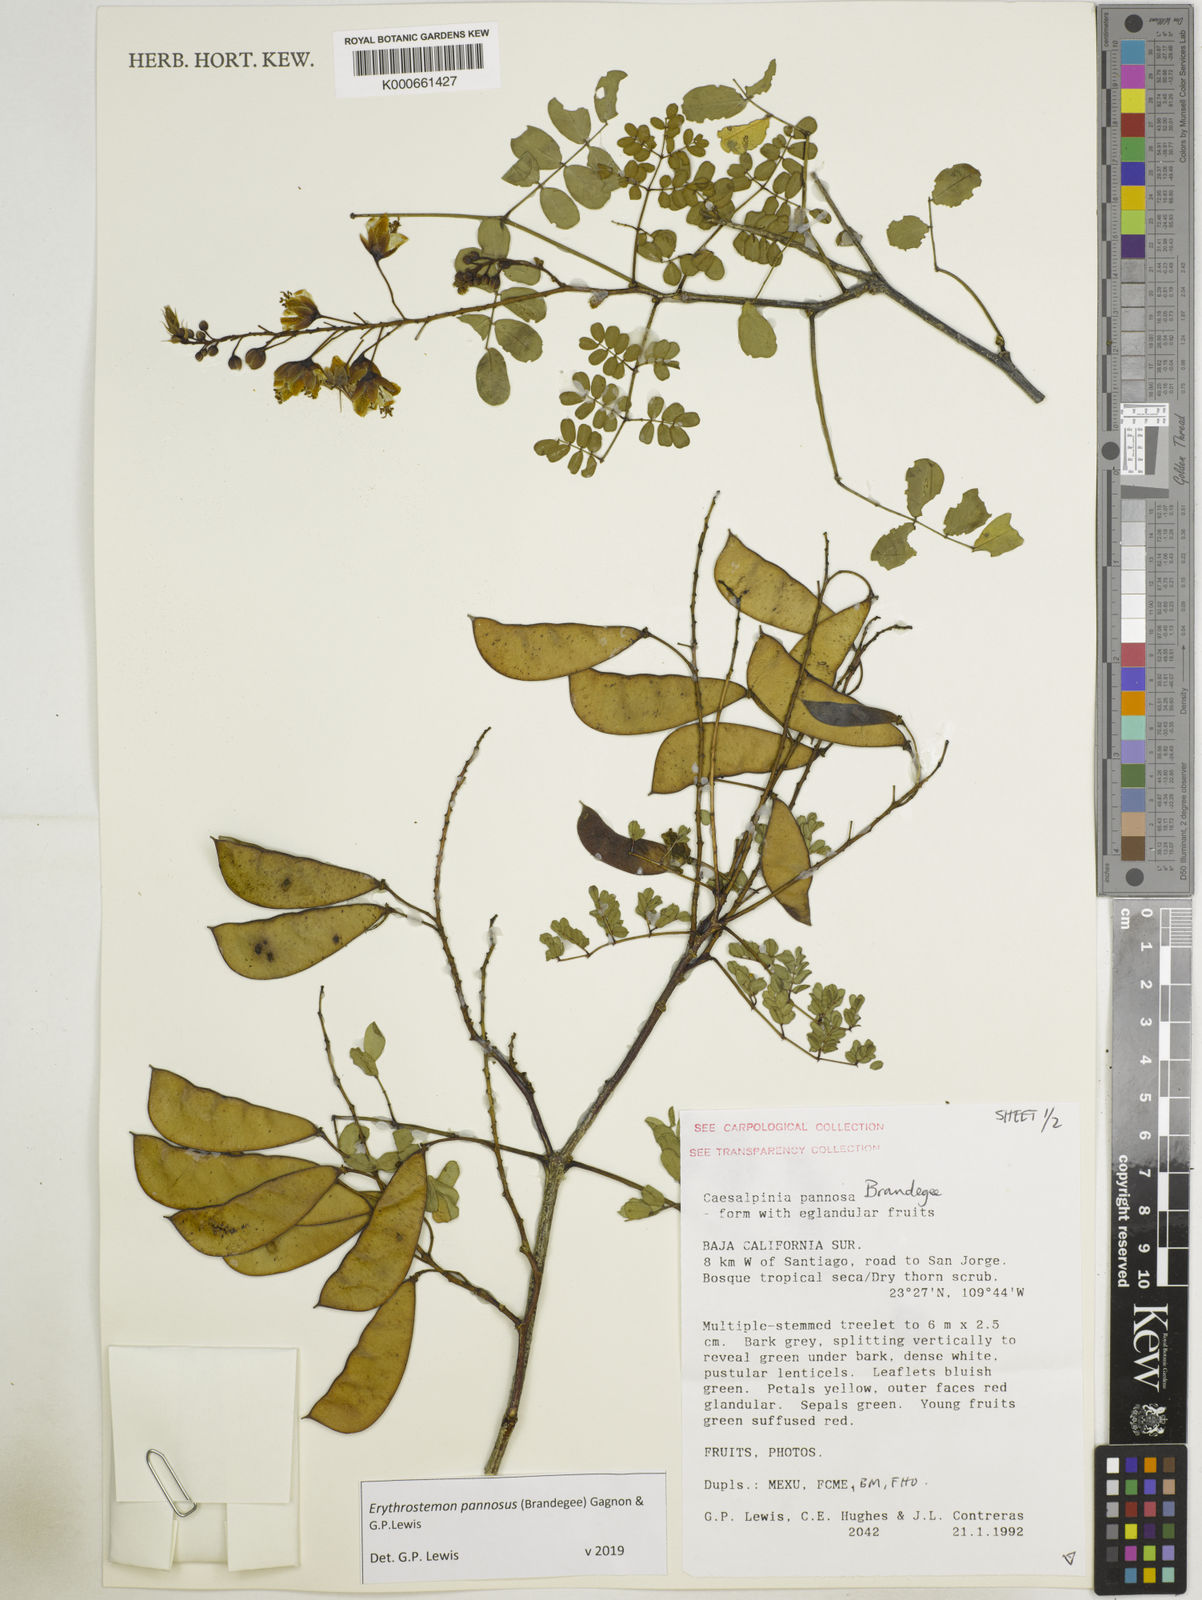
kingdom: Plantae
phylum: Tracheophyta
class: Magnoliopsida
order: Fabales
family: Fabaceae
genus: Erythrostemon
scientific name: Erythrostemon pannosus
